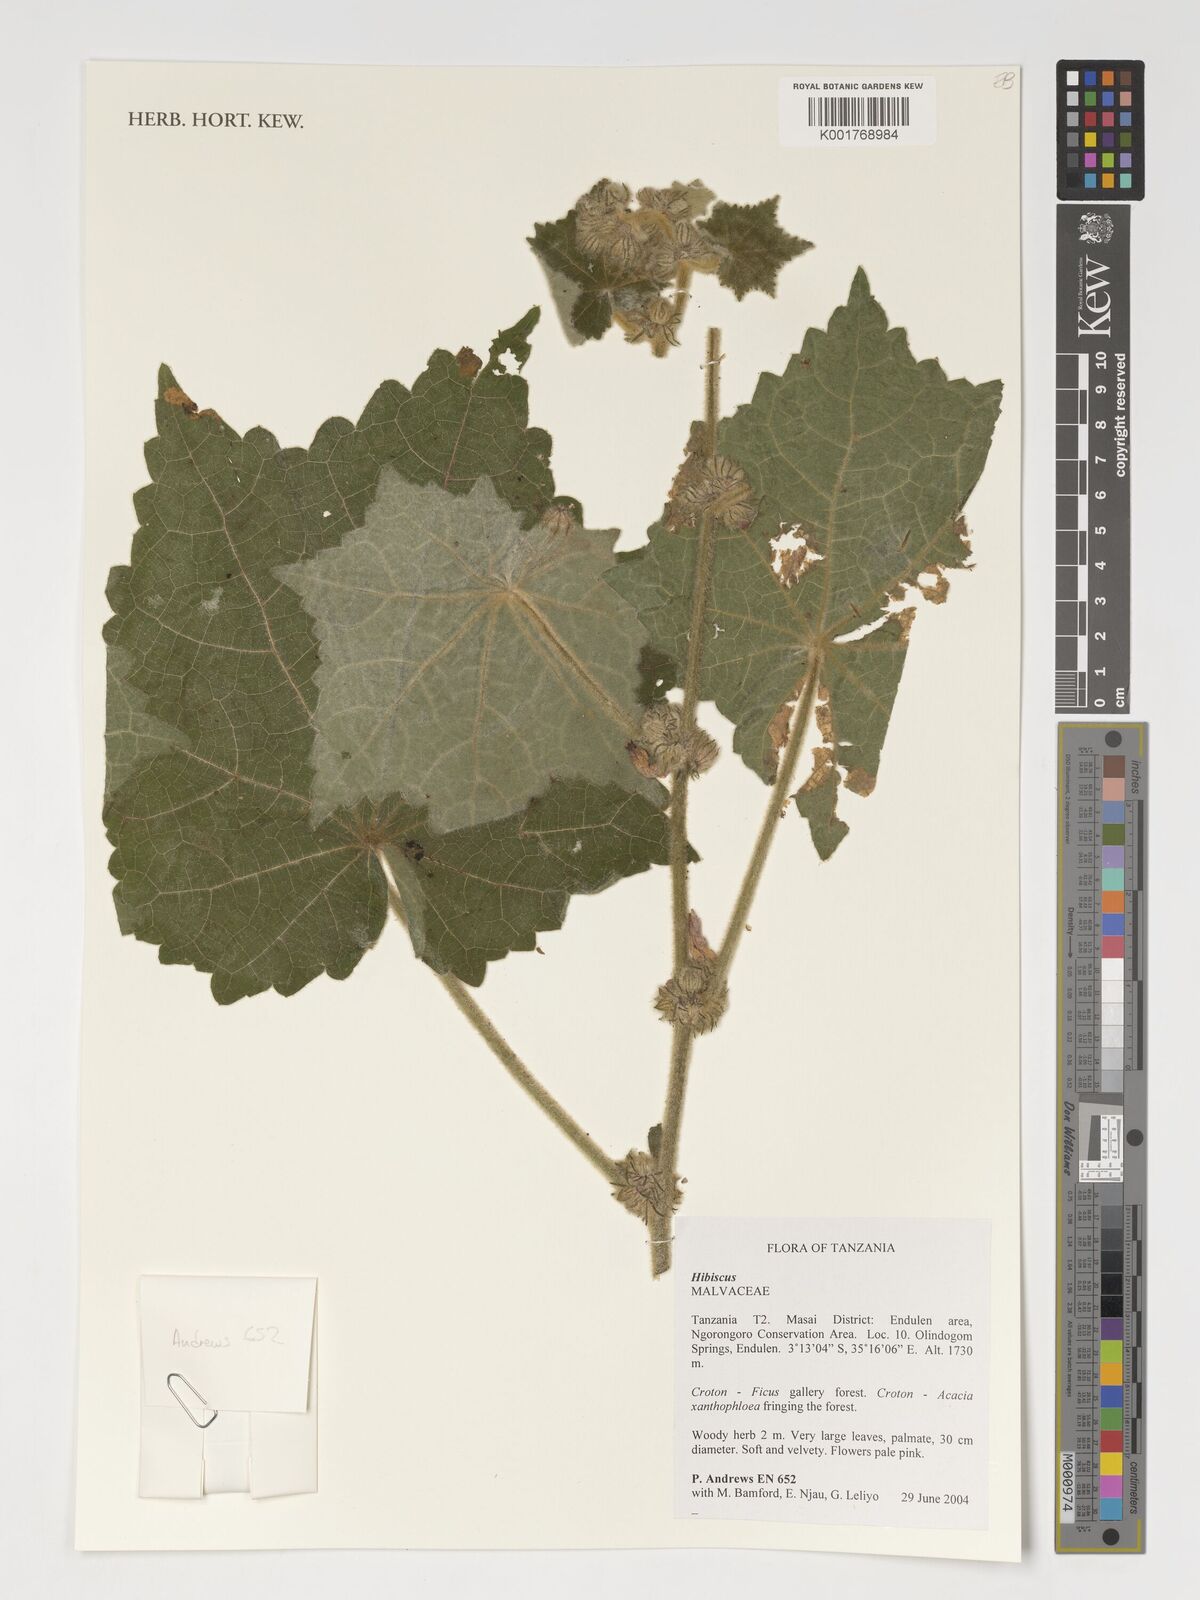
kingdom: Plantae
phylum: Tracheophyta
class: Magnoliopsida
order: Malvales
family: Malvaceae
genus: Hibiscus
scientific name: Hibiscus
